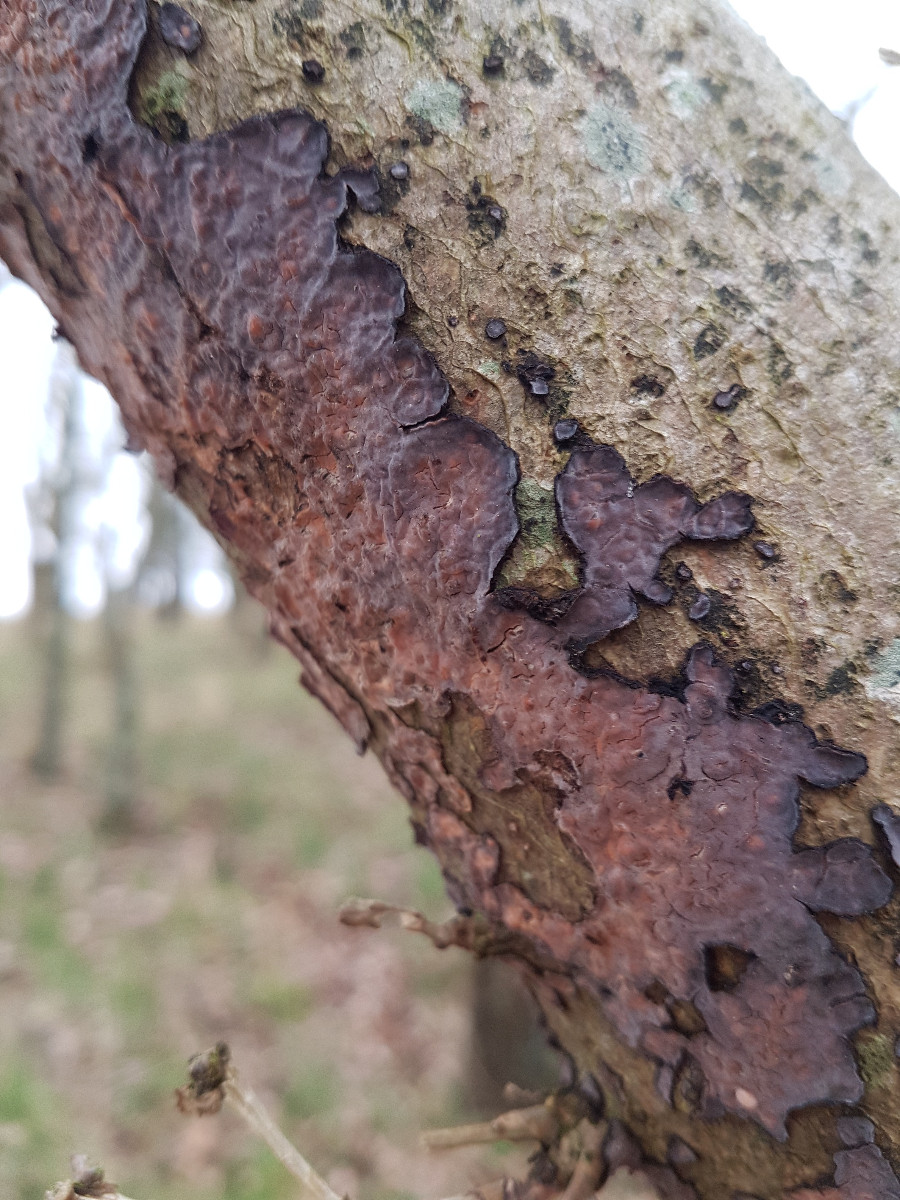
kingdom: Fungi
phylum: Basidiomycota
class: Agaricomycetes
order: Russulales
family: Peniophoraceae
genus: Peniophora
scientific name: Peniophora quercina
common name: ege-voksskind
